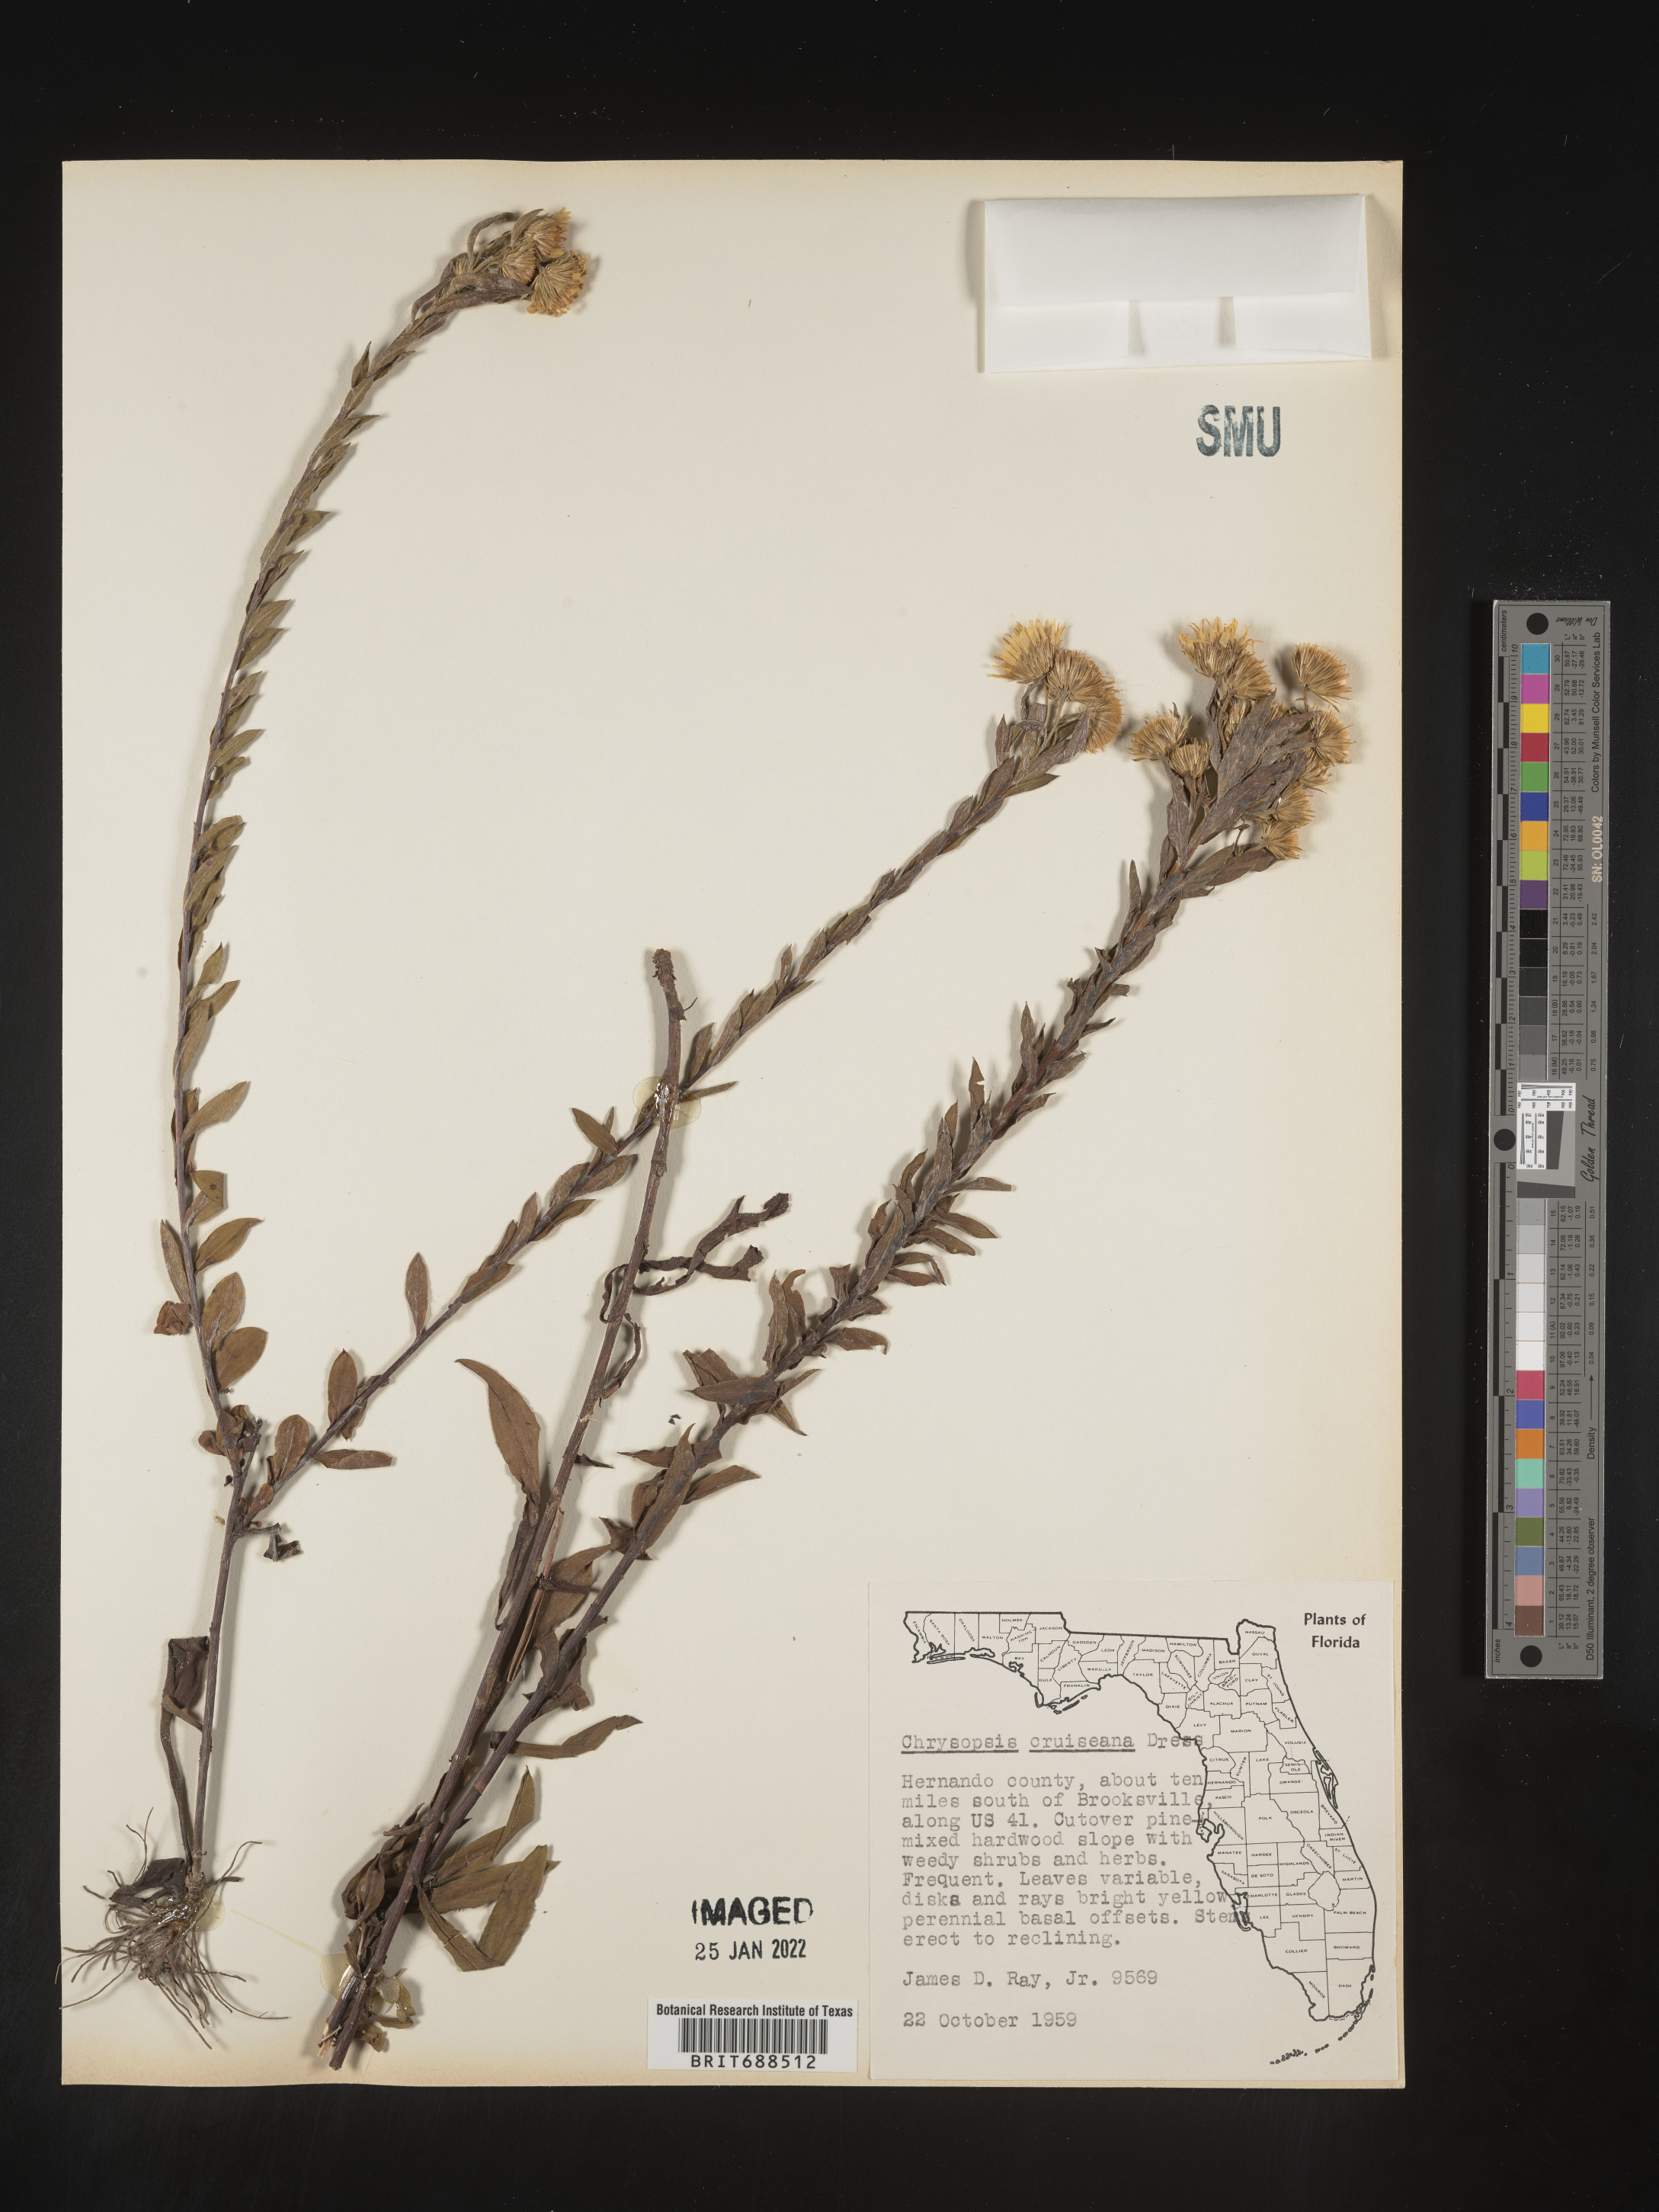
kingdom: Plantae
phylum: Tracheophyta
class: Magnoliopsida
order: Asterales
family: Asteraceae
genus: Chrysopsis
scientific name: Chrysopsis gossypina
